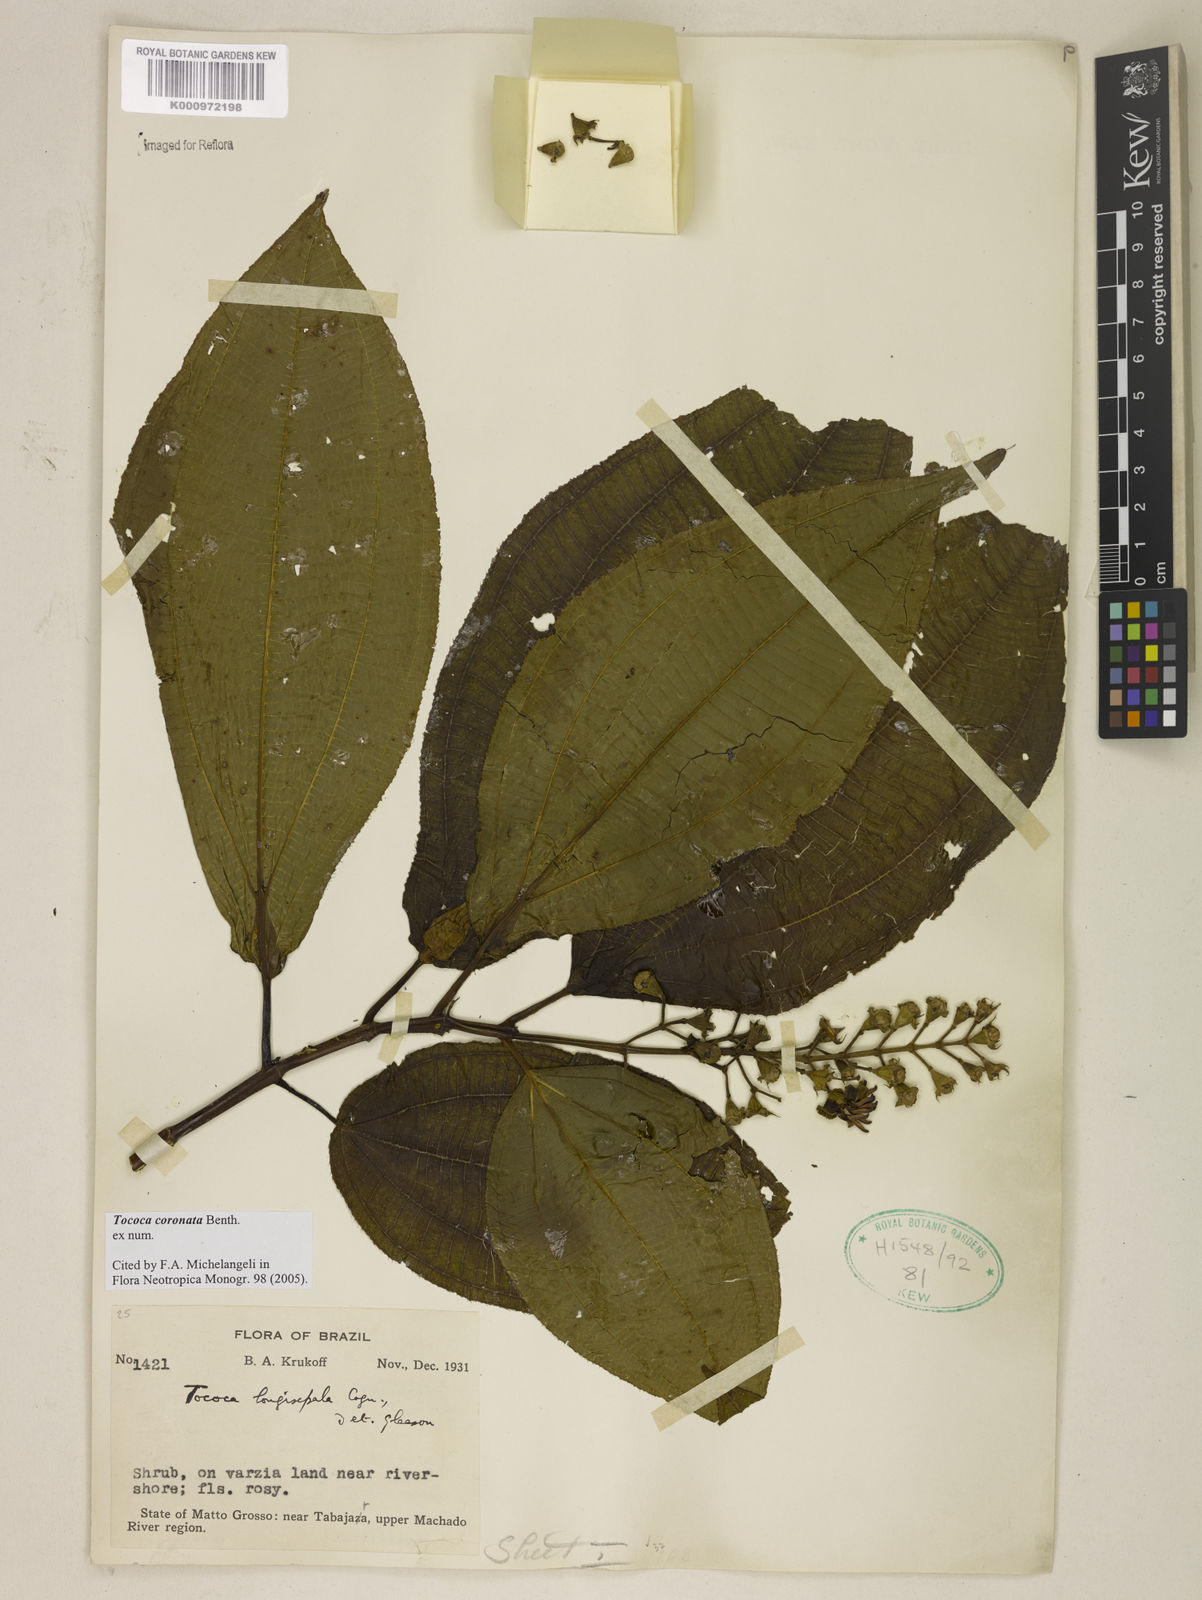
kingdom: Plantae
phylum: Tracheophyta
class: Magnoliopsida
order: Myrtales
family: Melastomataceae
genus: Miconia
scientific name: Miconia tococoronata
